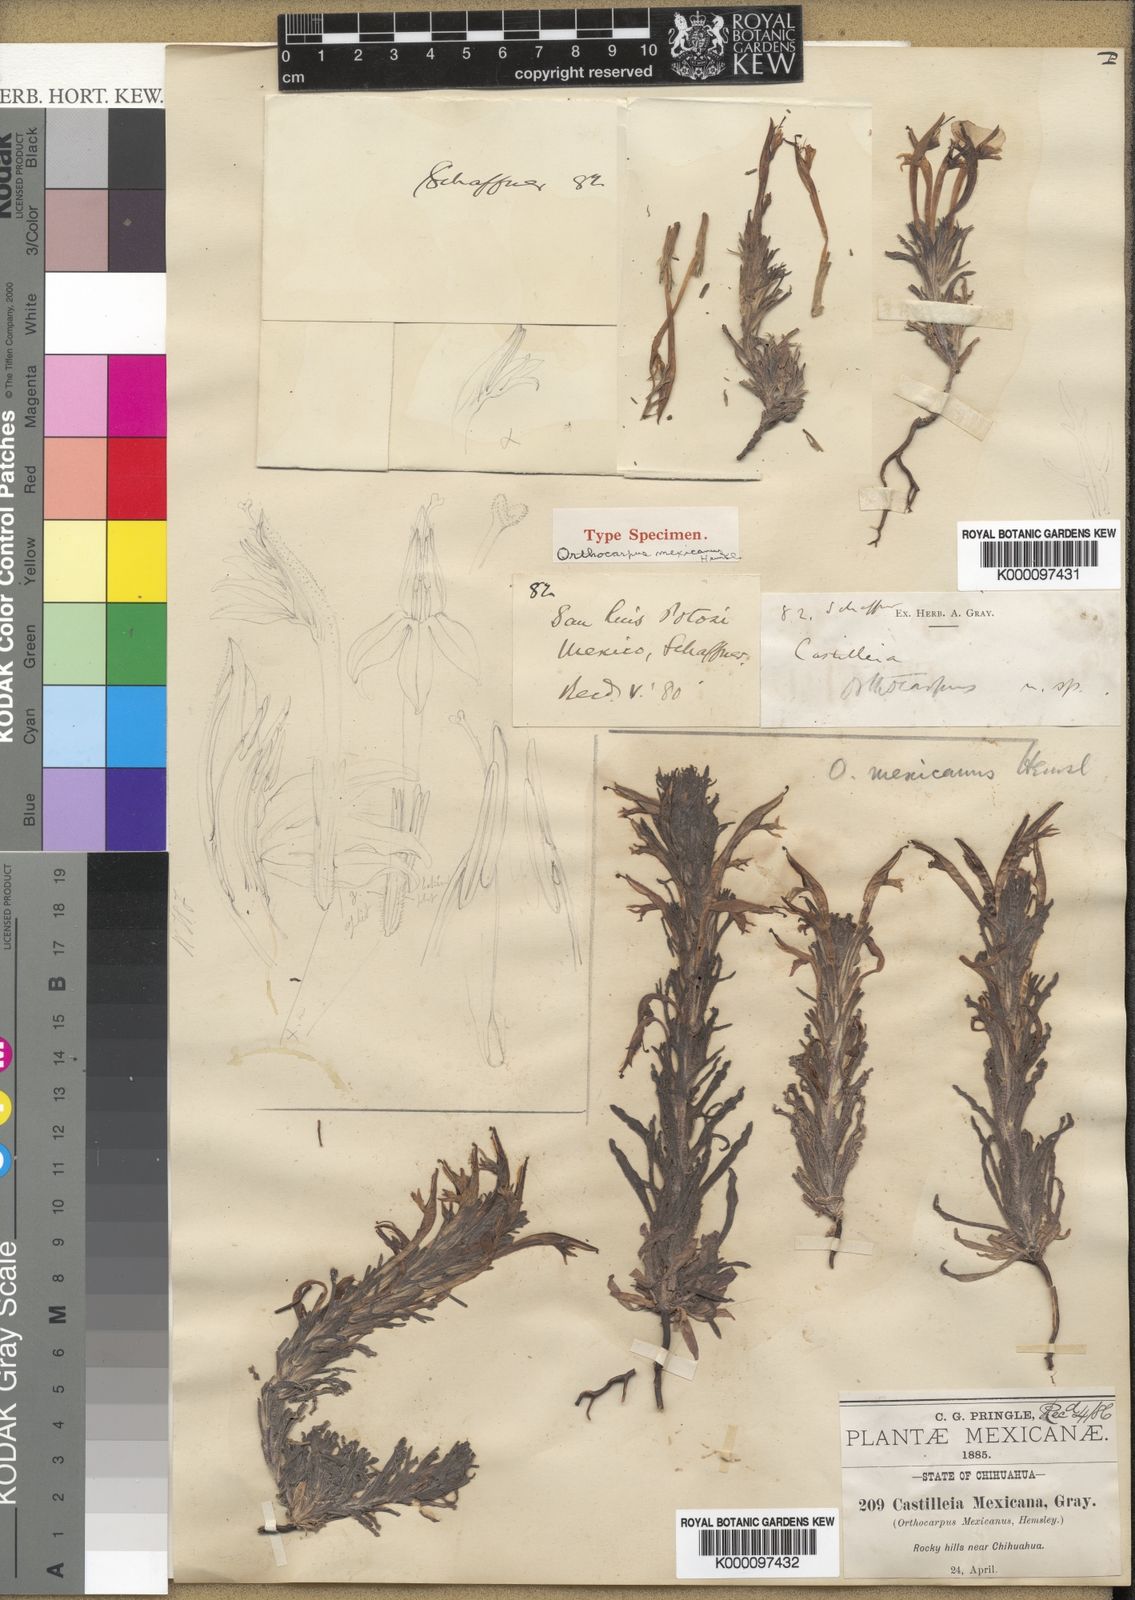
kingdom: Plantae
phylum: Tracheophyta
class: Magnoliopsida
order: Lamiales
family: Orobanchaceae
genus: Castilleja
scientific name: Castilleja mexicana
